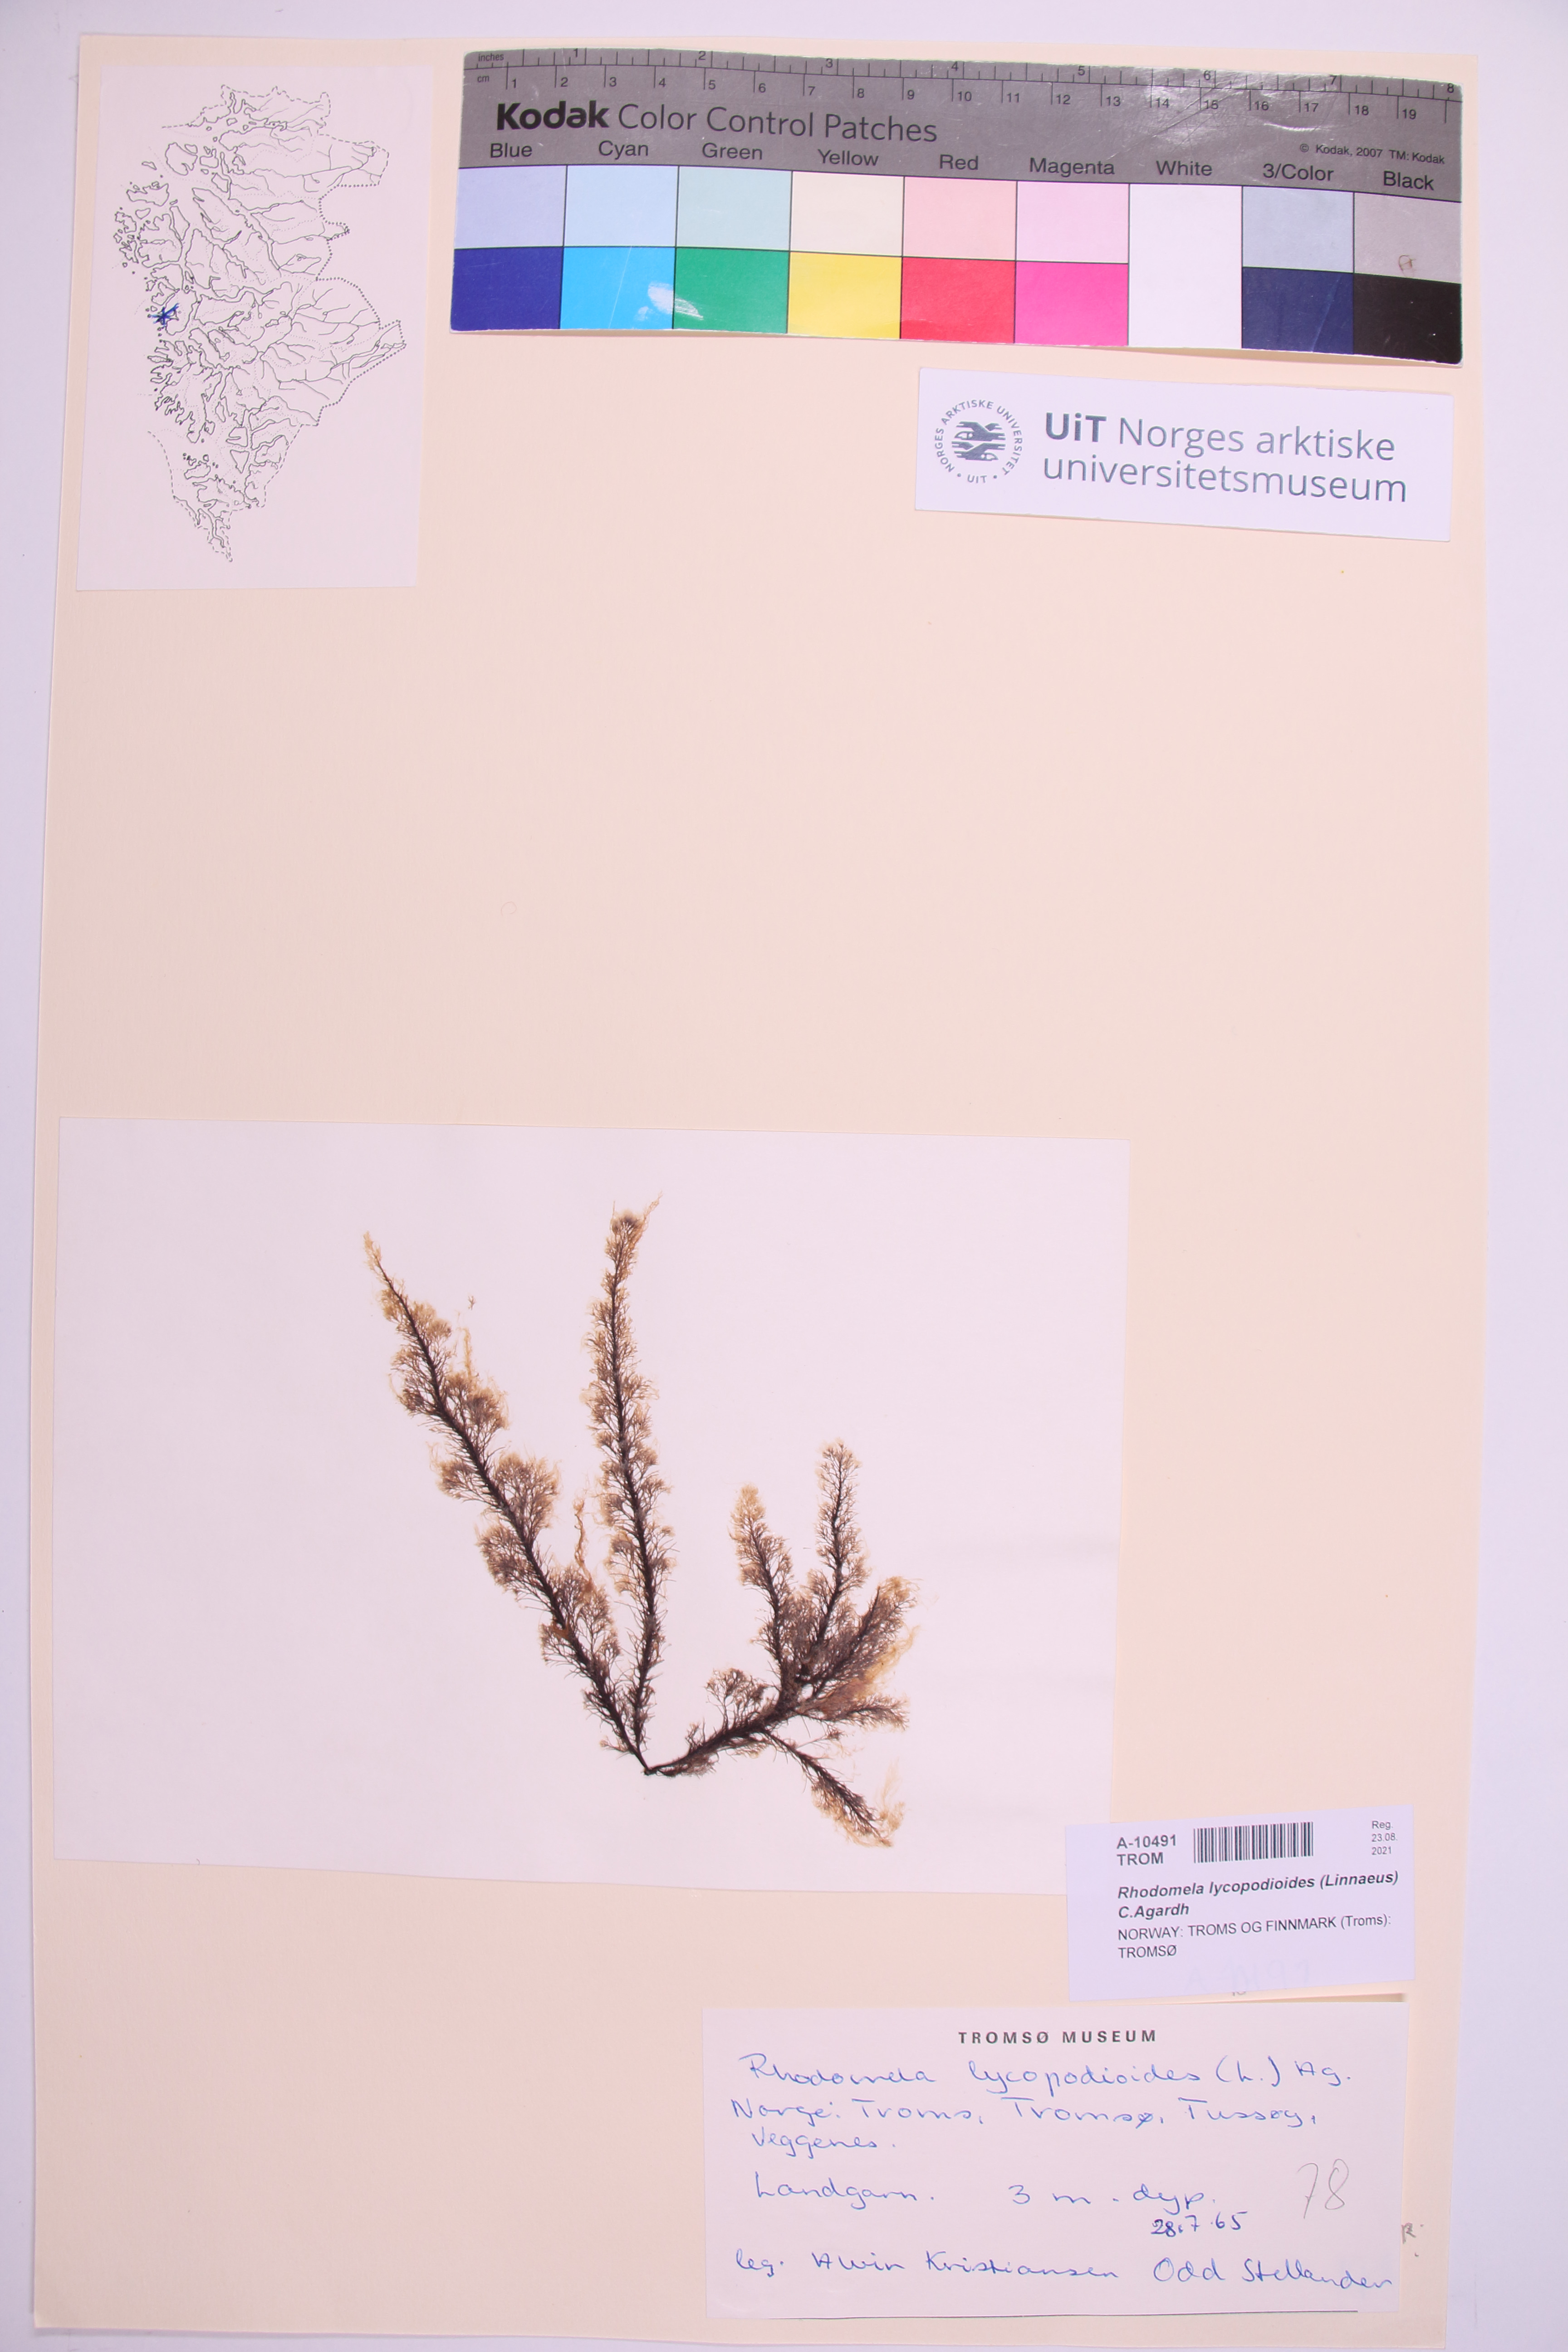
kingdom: Plantae
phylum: Rhodophyta
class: Florideophyceae
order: Ceramiales
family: Rhodomelaceae
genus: Rhodomela
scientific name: Rhodomela lycopodioides
